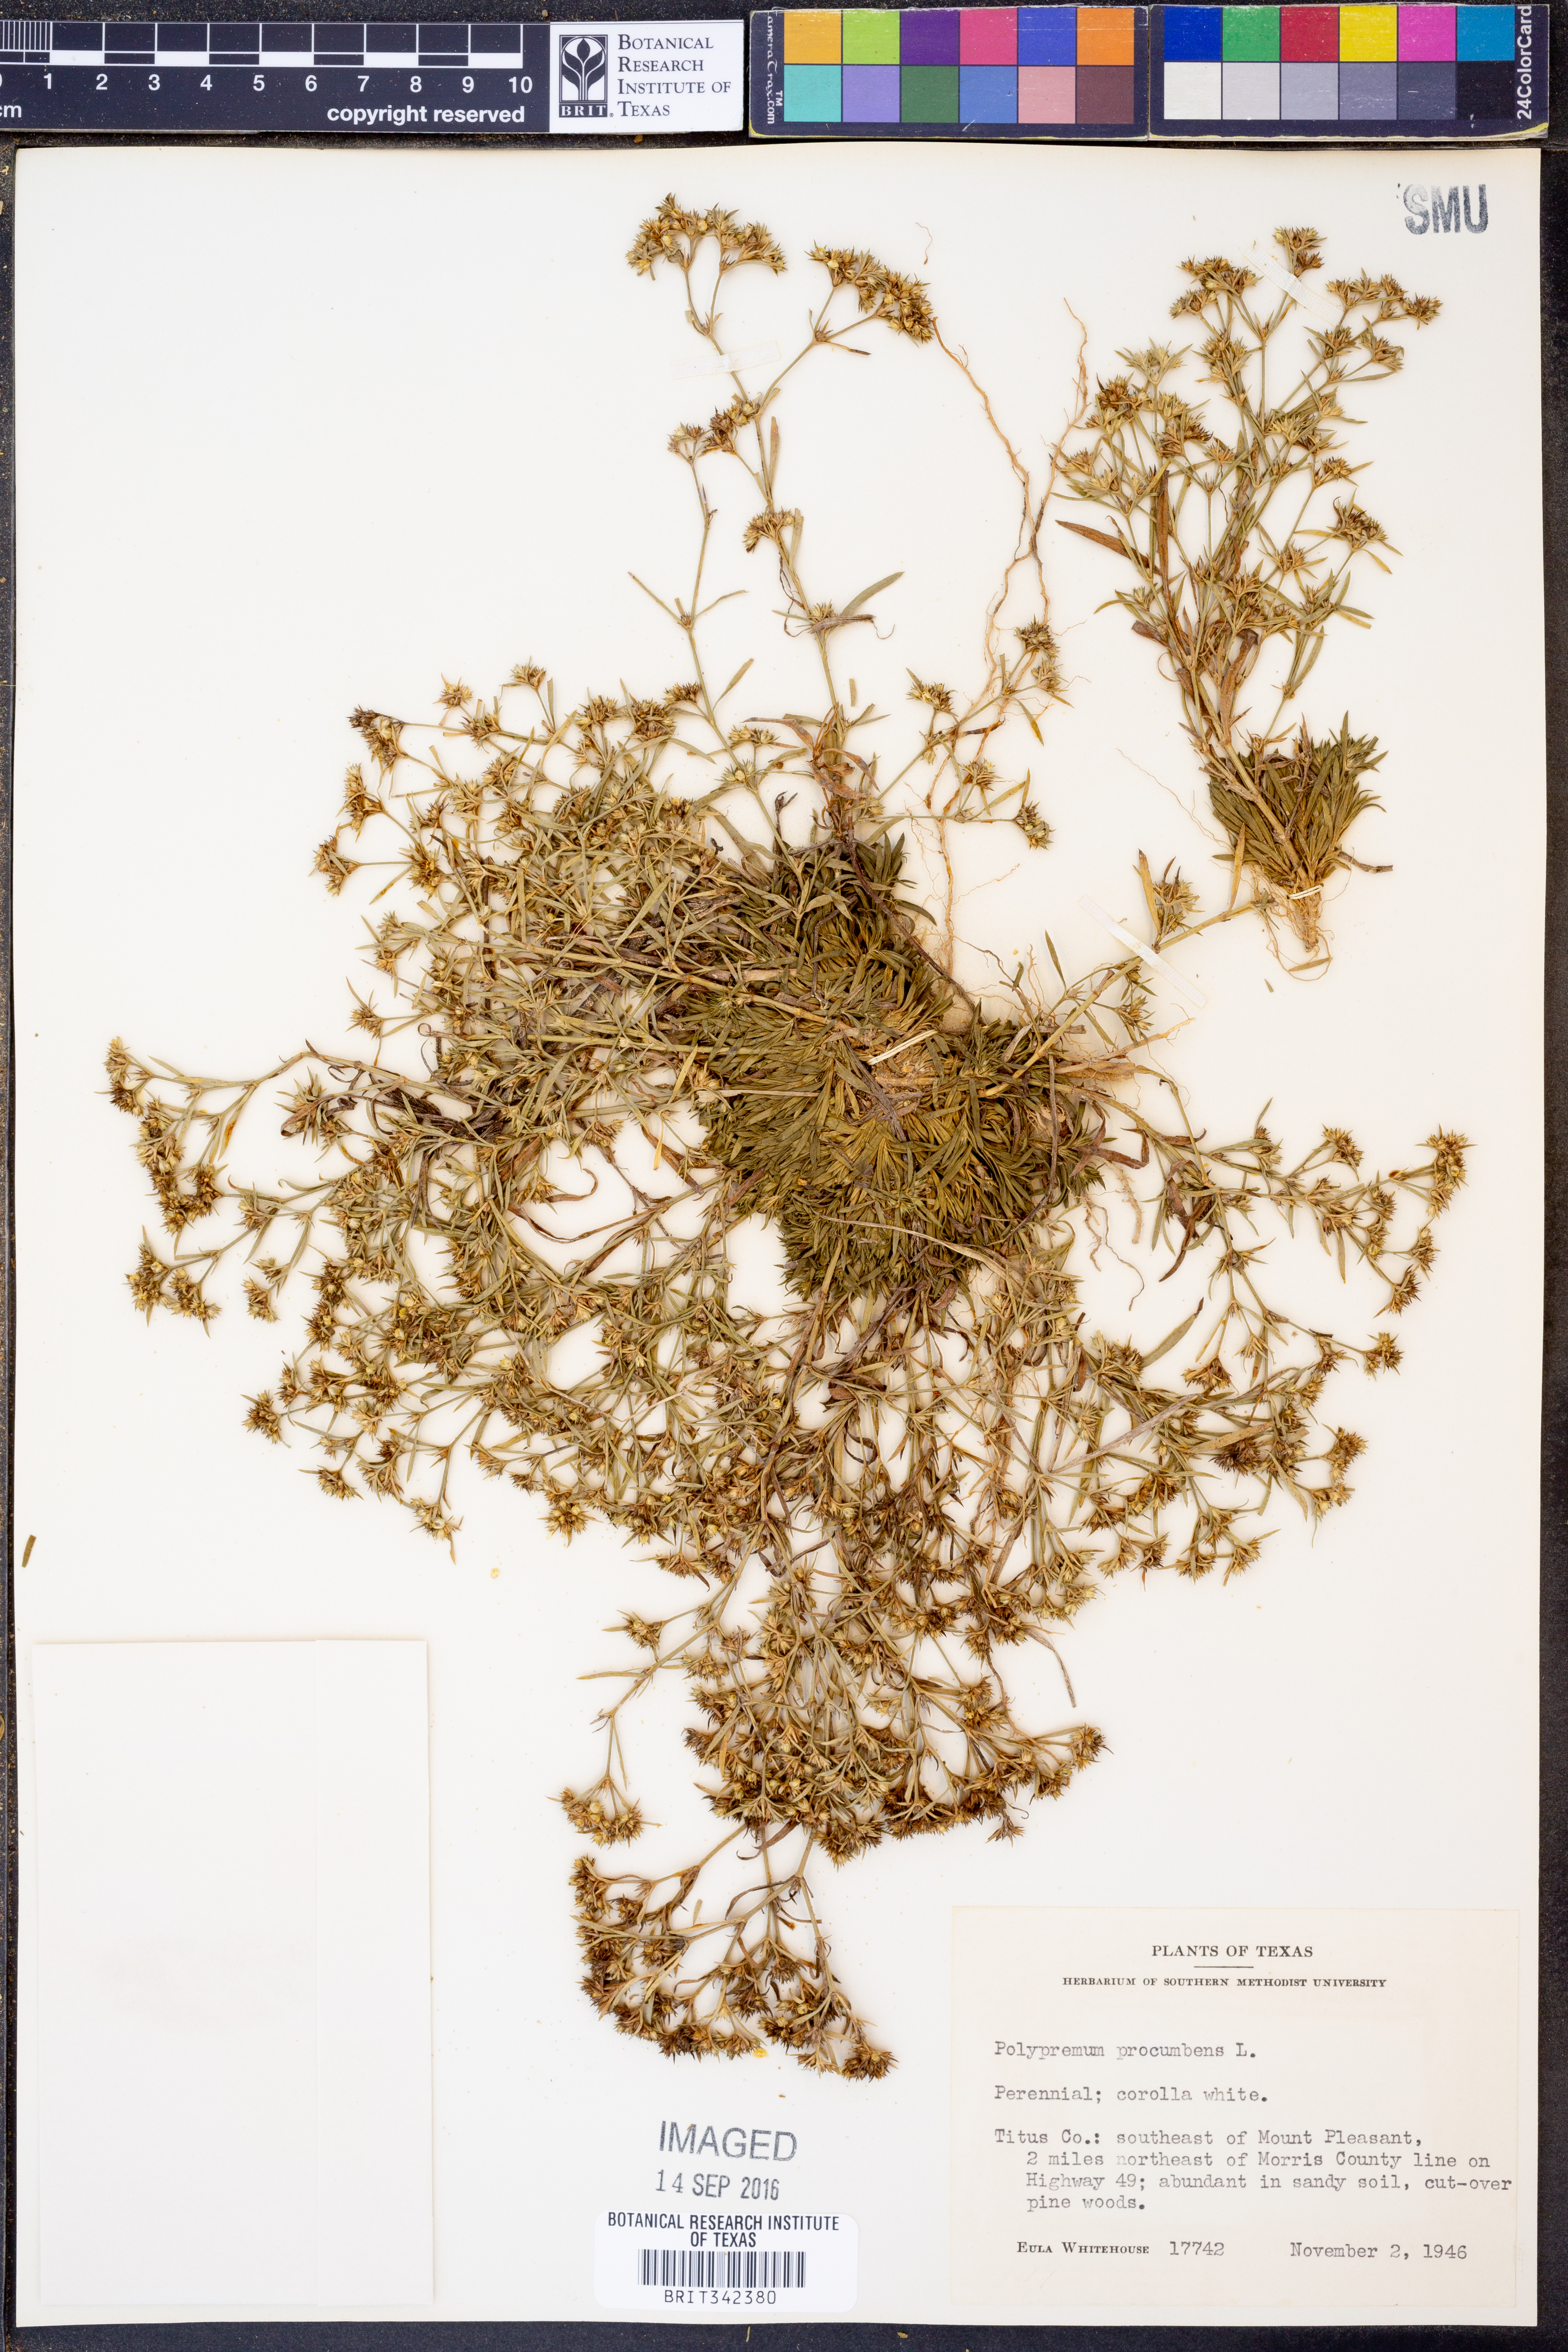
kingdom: Plantae
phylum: Tracheophyta
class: Magnoliopsida
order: Lamiales
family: Tetrachondraceae
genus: Polypremum
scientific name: Polypremum procumbens
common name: Juniper-leaf
